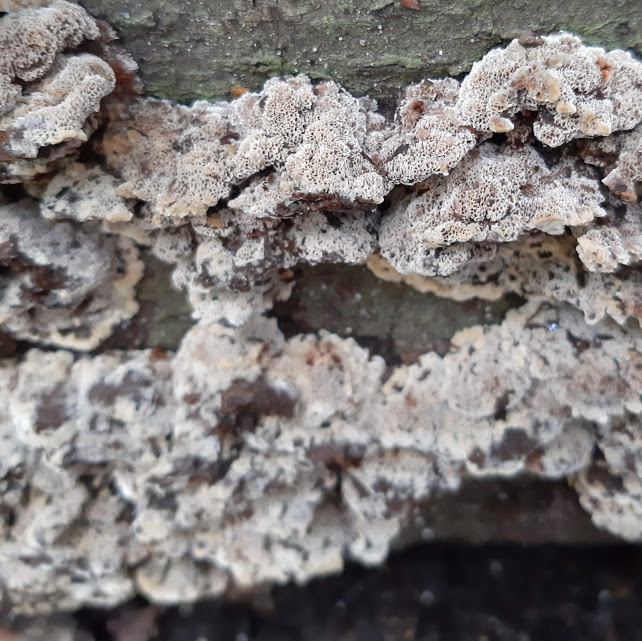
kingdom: Fungi
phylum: Basidiomycota
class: Agaricomycetes
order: Polyporales
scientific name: Polyporales
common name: poresvampordenen
